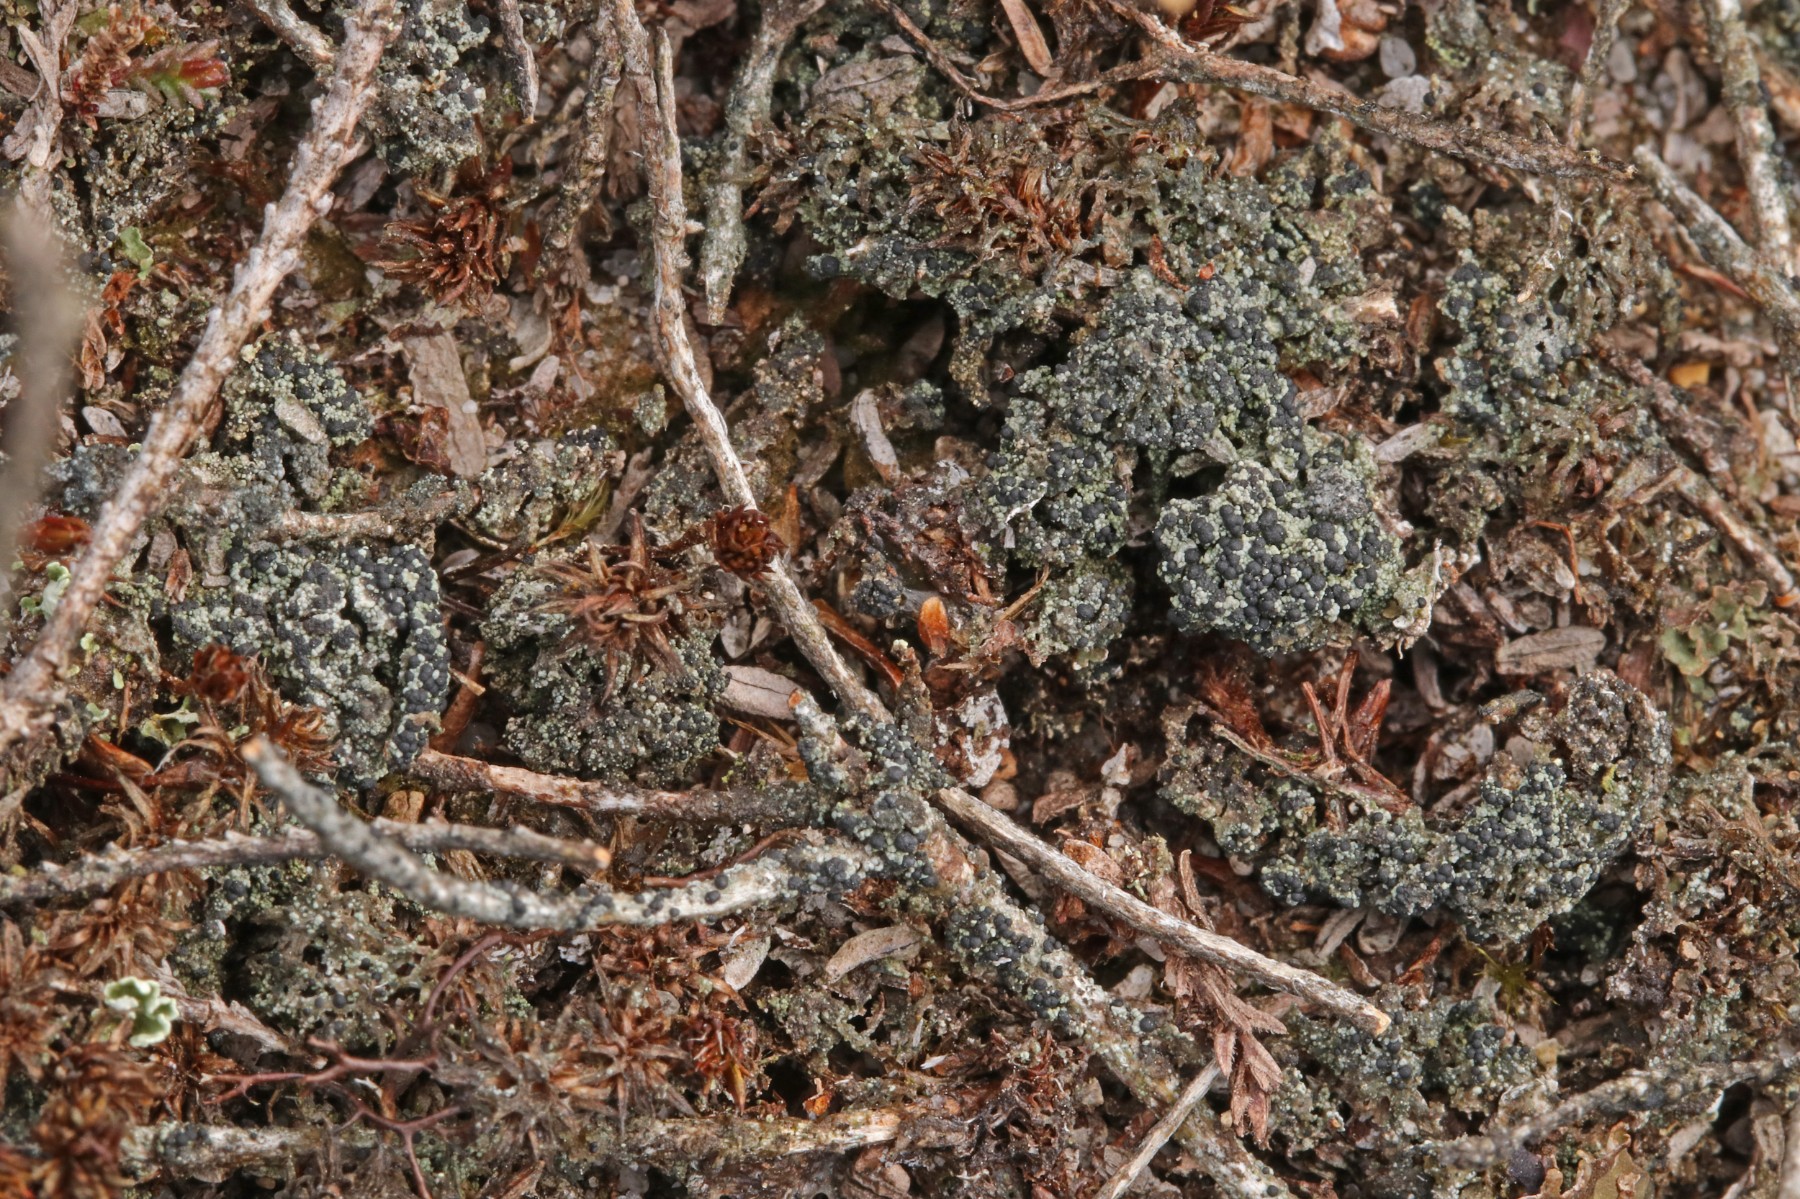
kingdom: Fungi
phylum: Ascomycota
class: Lecanoromycetes
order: Lecanorales
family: Byssolomataceae
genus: Micarea
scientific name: Micarea lignaria
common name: tørve-knaplav
